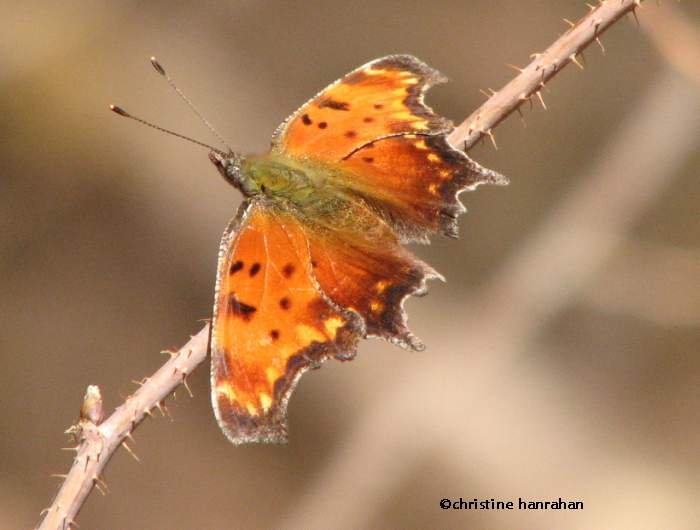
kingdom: Animalia
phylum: Arthropoda
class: Insecta
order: Lepidoptera
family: Nymphalidae
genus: Polygonia
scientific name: Polygonia comma
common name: Eastern Comma
